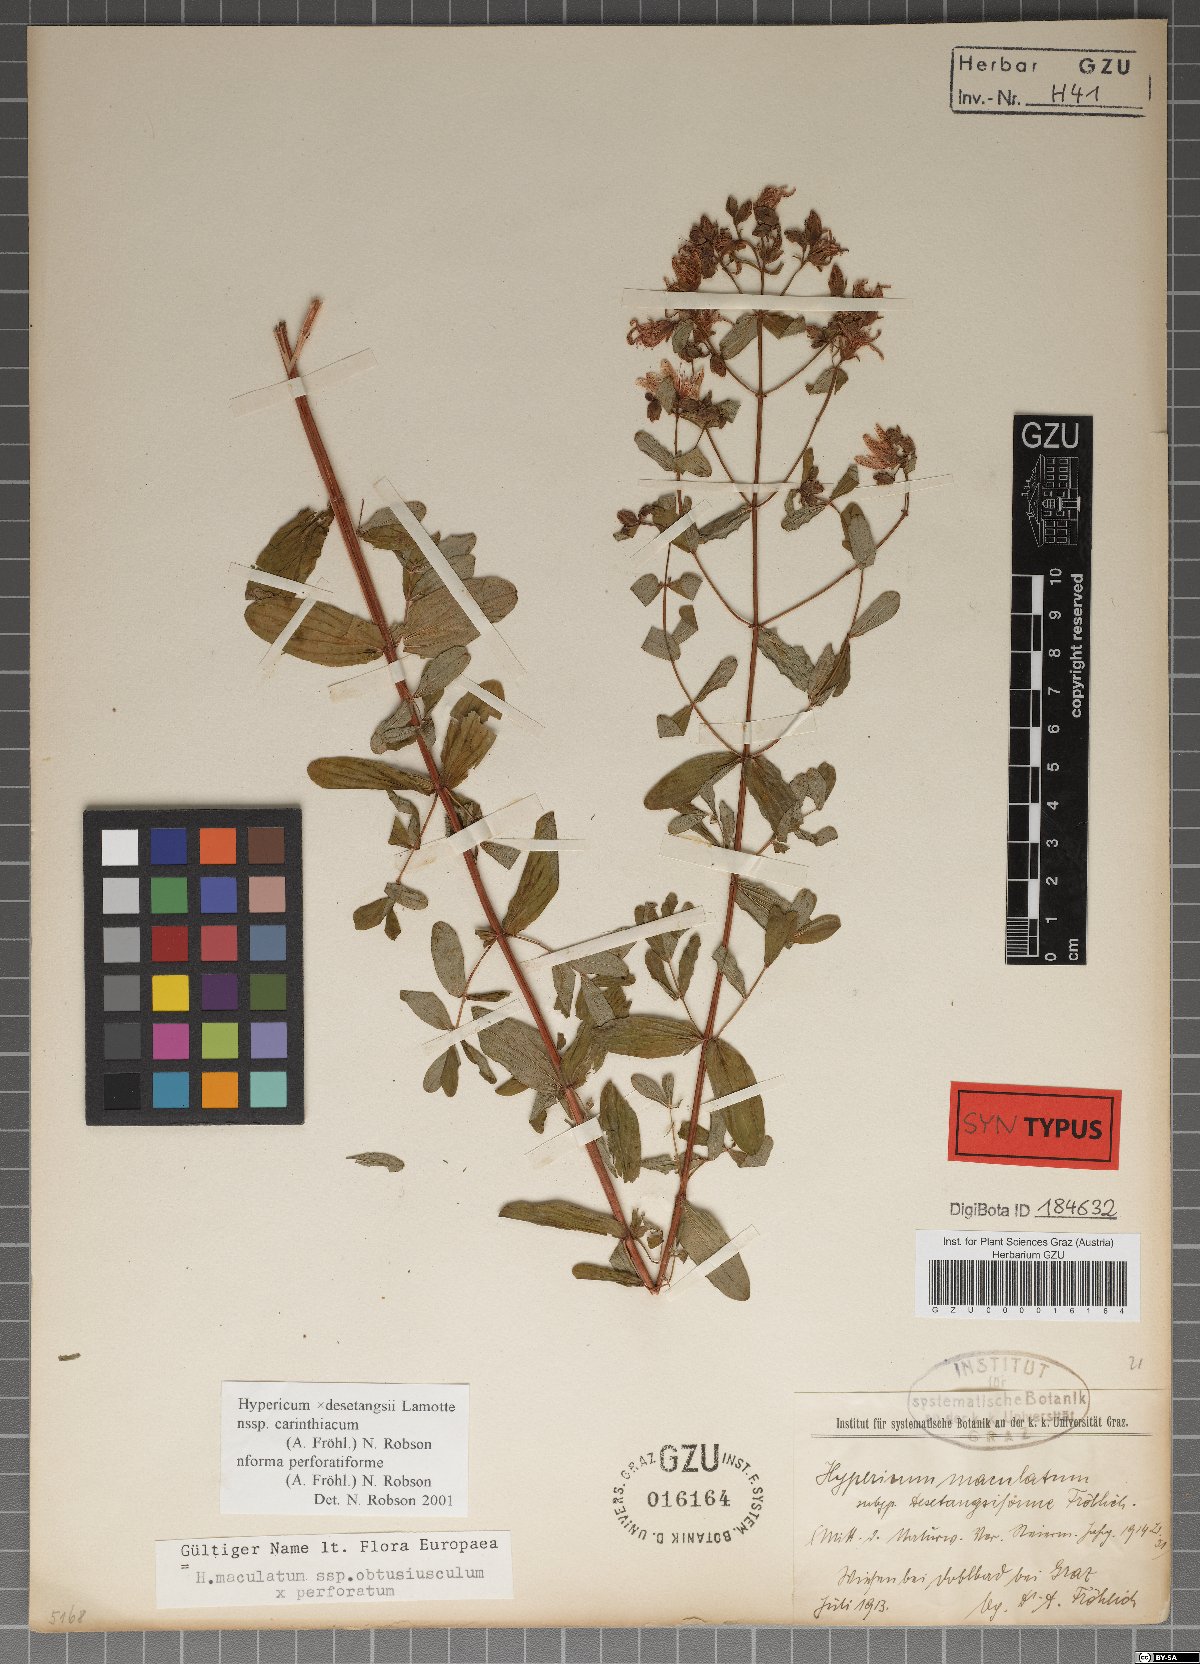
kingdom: Plantae
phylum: Tracheophyta
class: Magnoliopsida
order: Malpighiales
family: Hypericaceae
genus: Hypericum
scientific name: Hypericum carinthiacum
